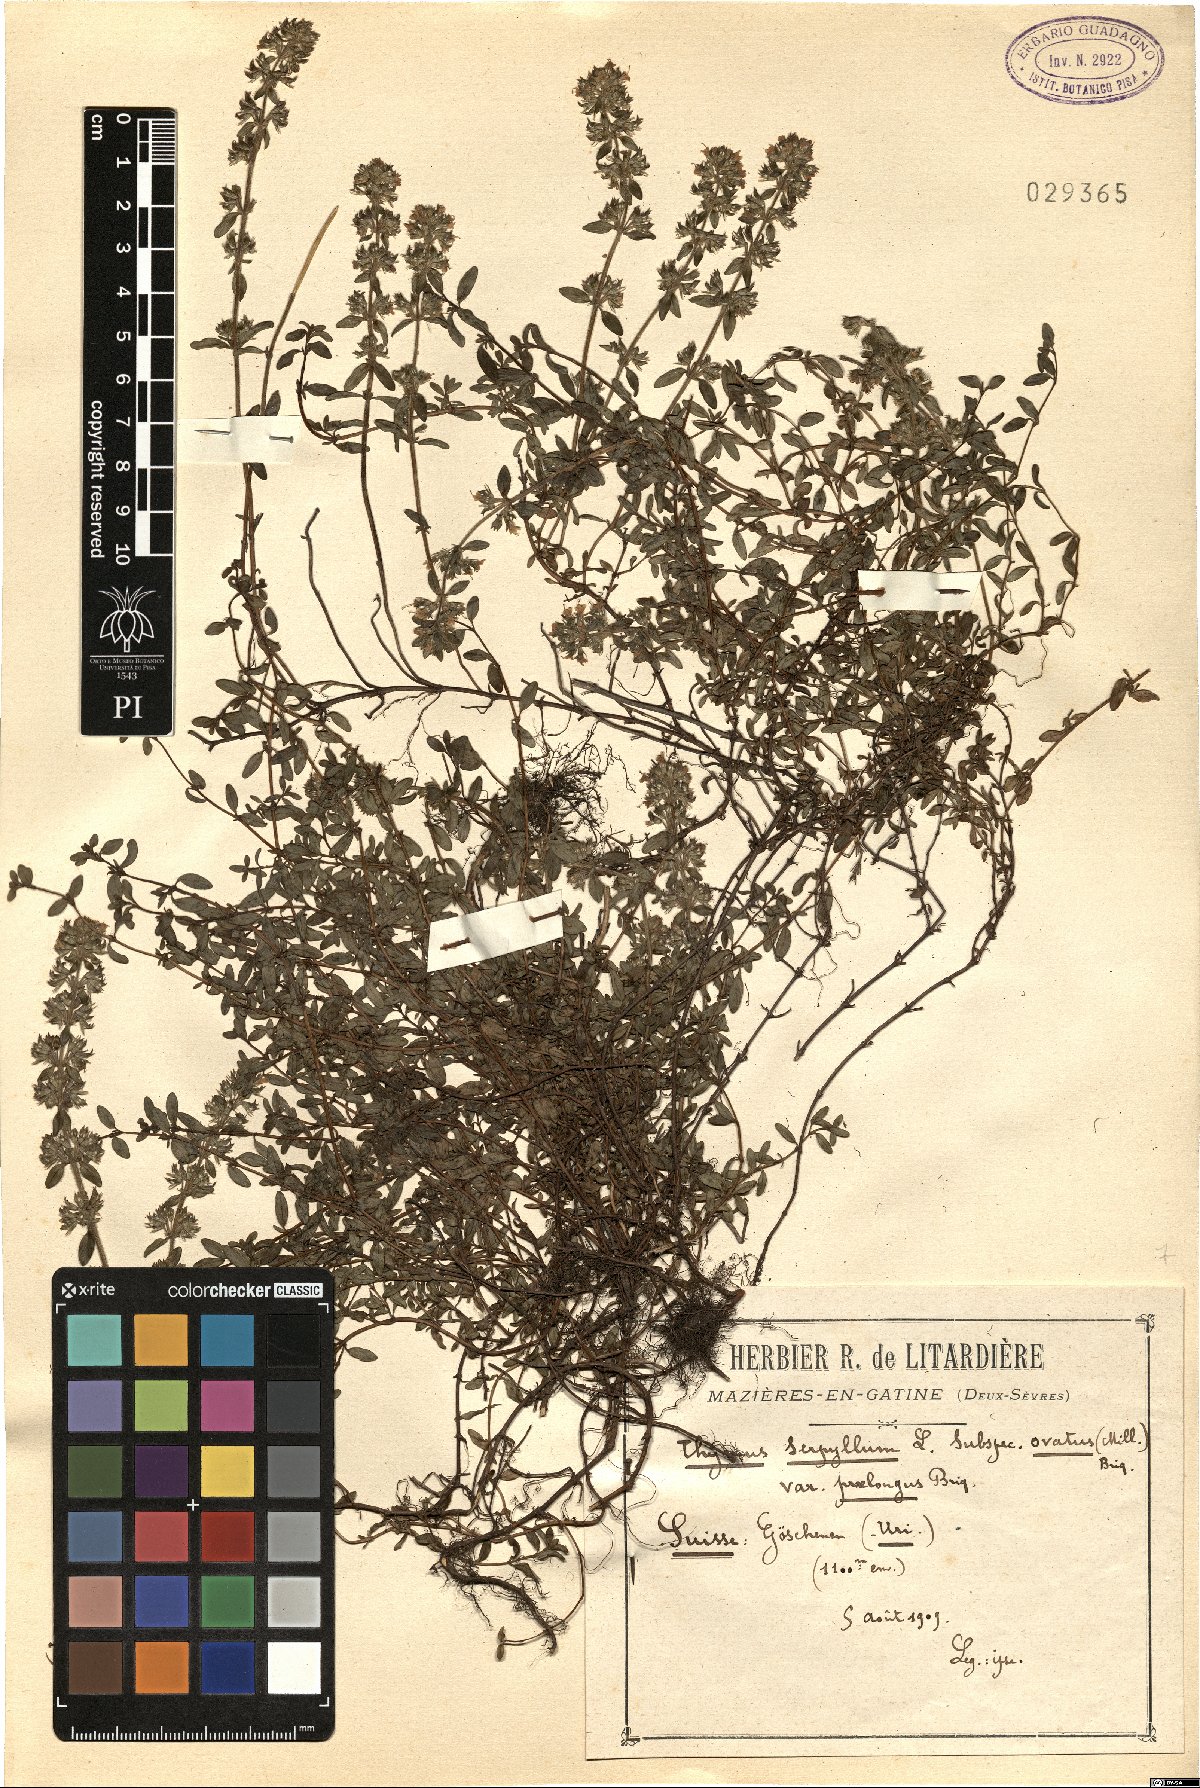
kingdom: Plantae
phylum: Tracheophyta
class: Magnoliopsida
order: Lamiales
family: Lamiaceae
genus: Thymus
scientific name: Thymus pulegioides
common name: Large thyme
